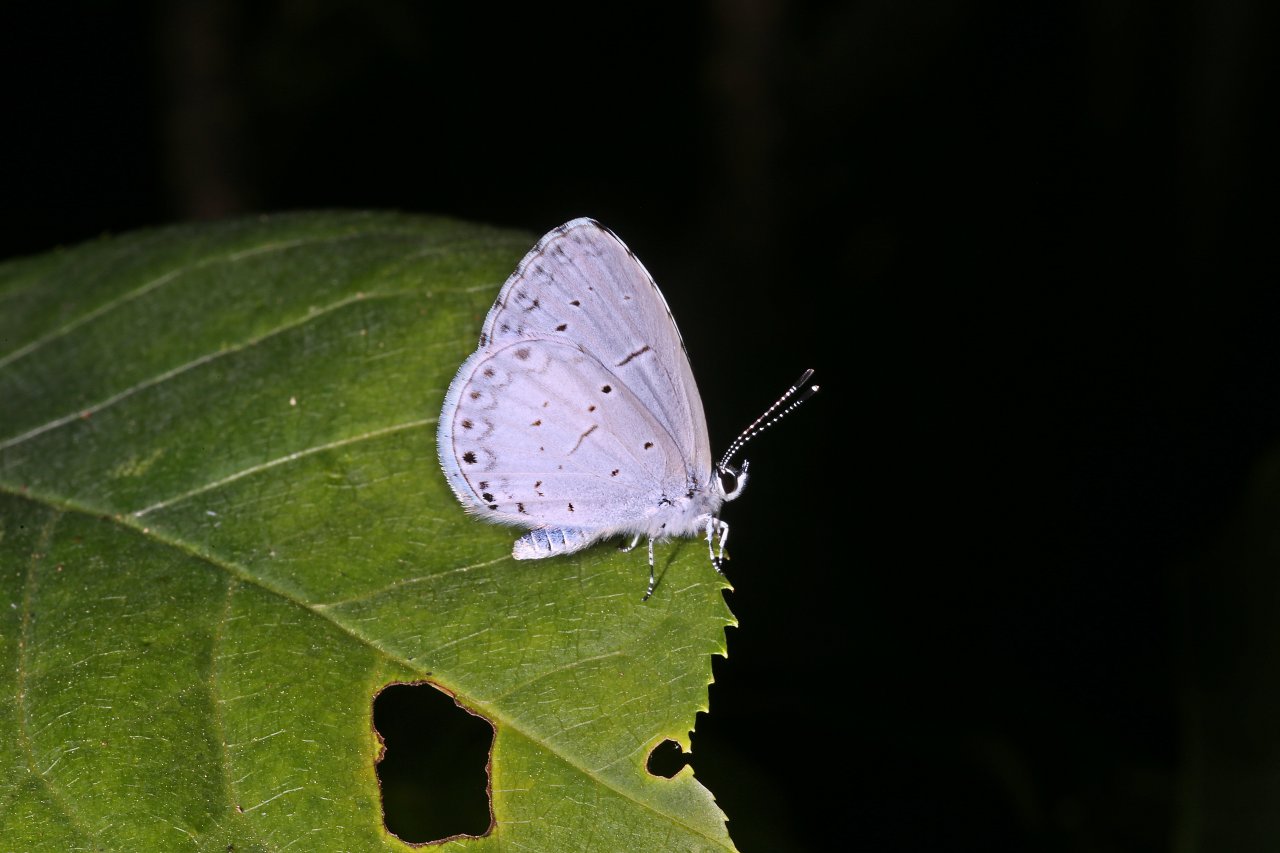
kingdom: Animalia
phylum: Arthropoda
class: Insecta
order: Lepidoptera
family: Lycaenidae
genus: Cyaniris
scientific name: Cyaniris neglecta
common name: Summer Azure
